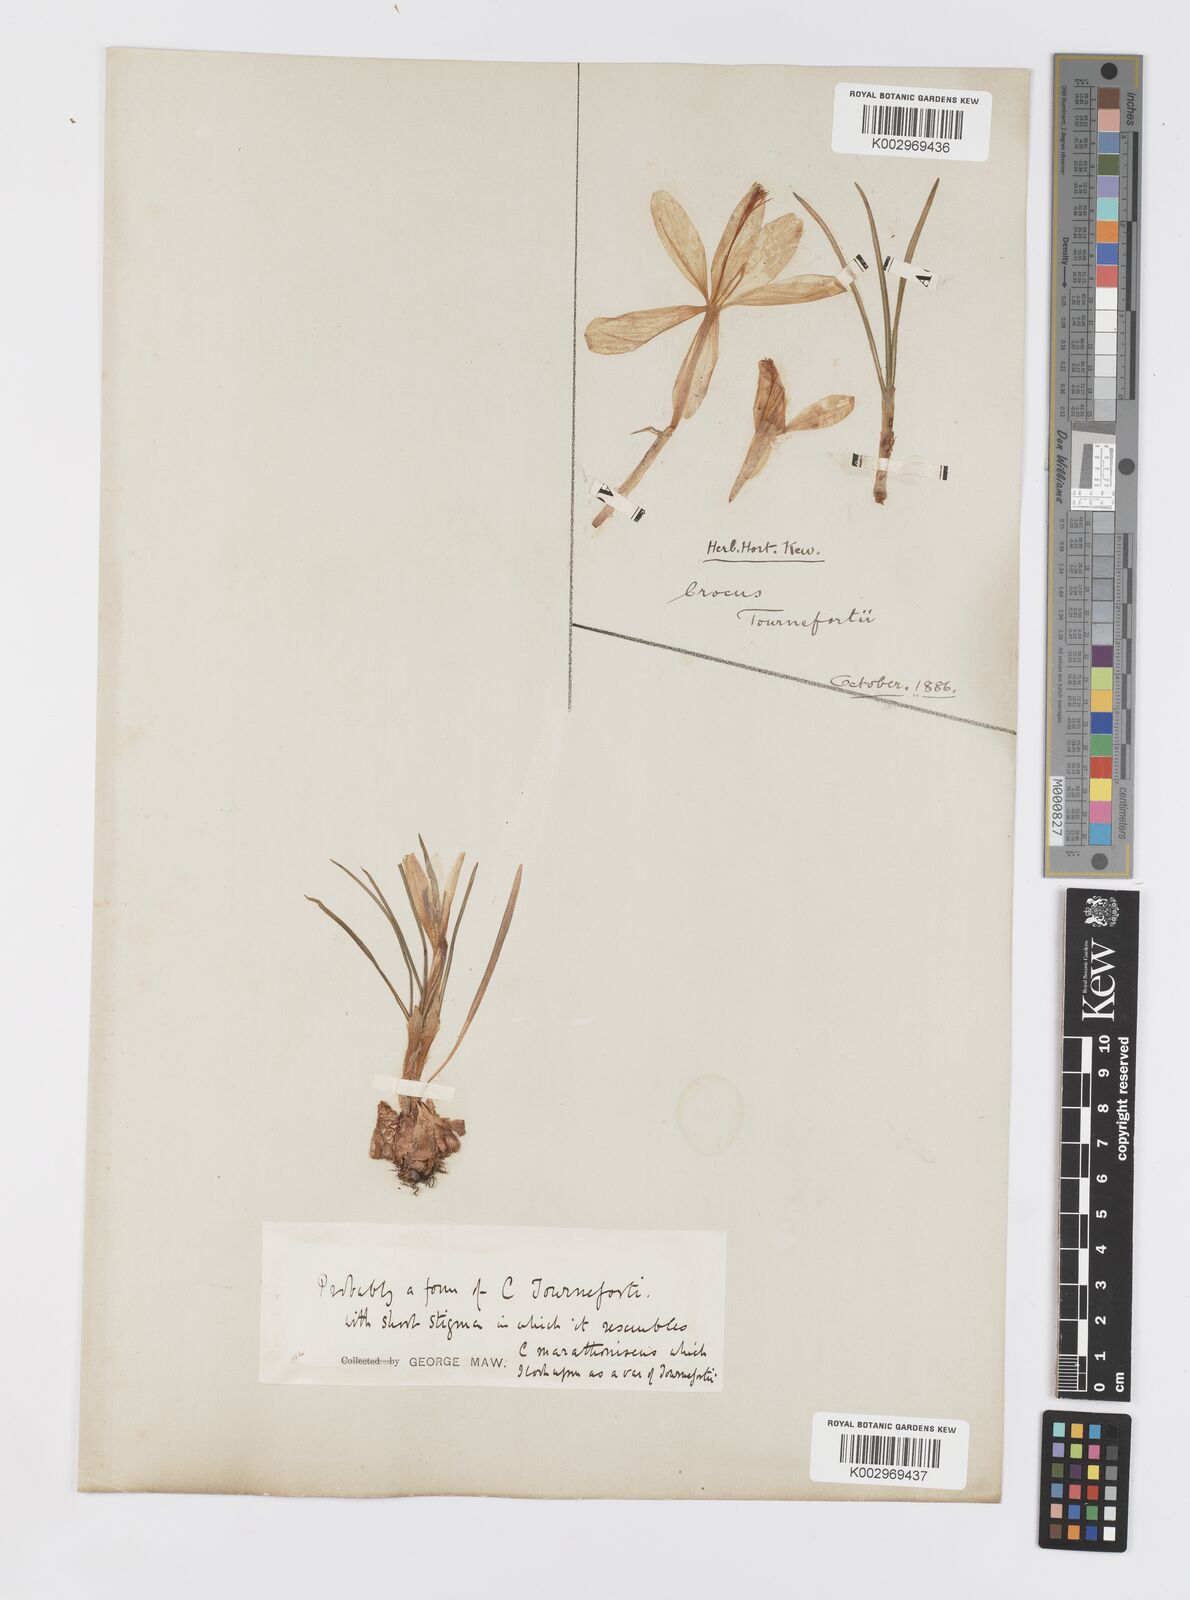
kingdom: Plantae
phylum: Tracheophyta
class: Liliopsida
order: Asparagales
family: Iridaceae
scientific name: Iridaceae
